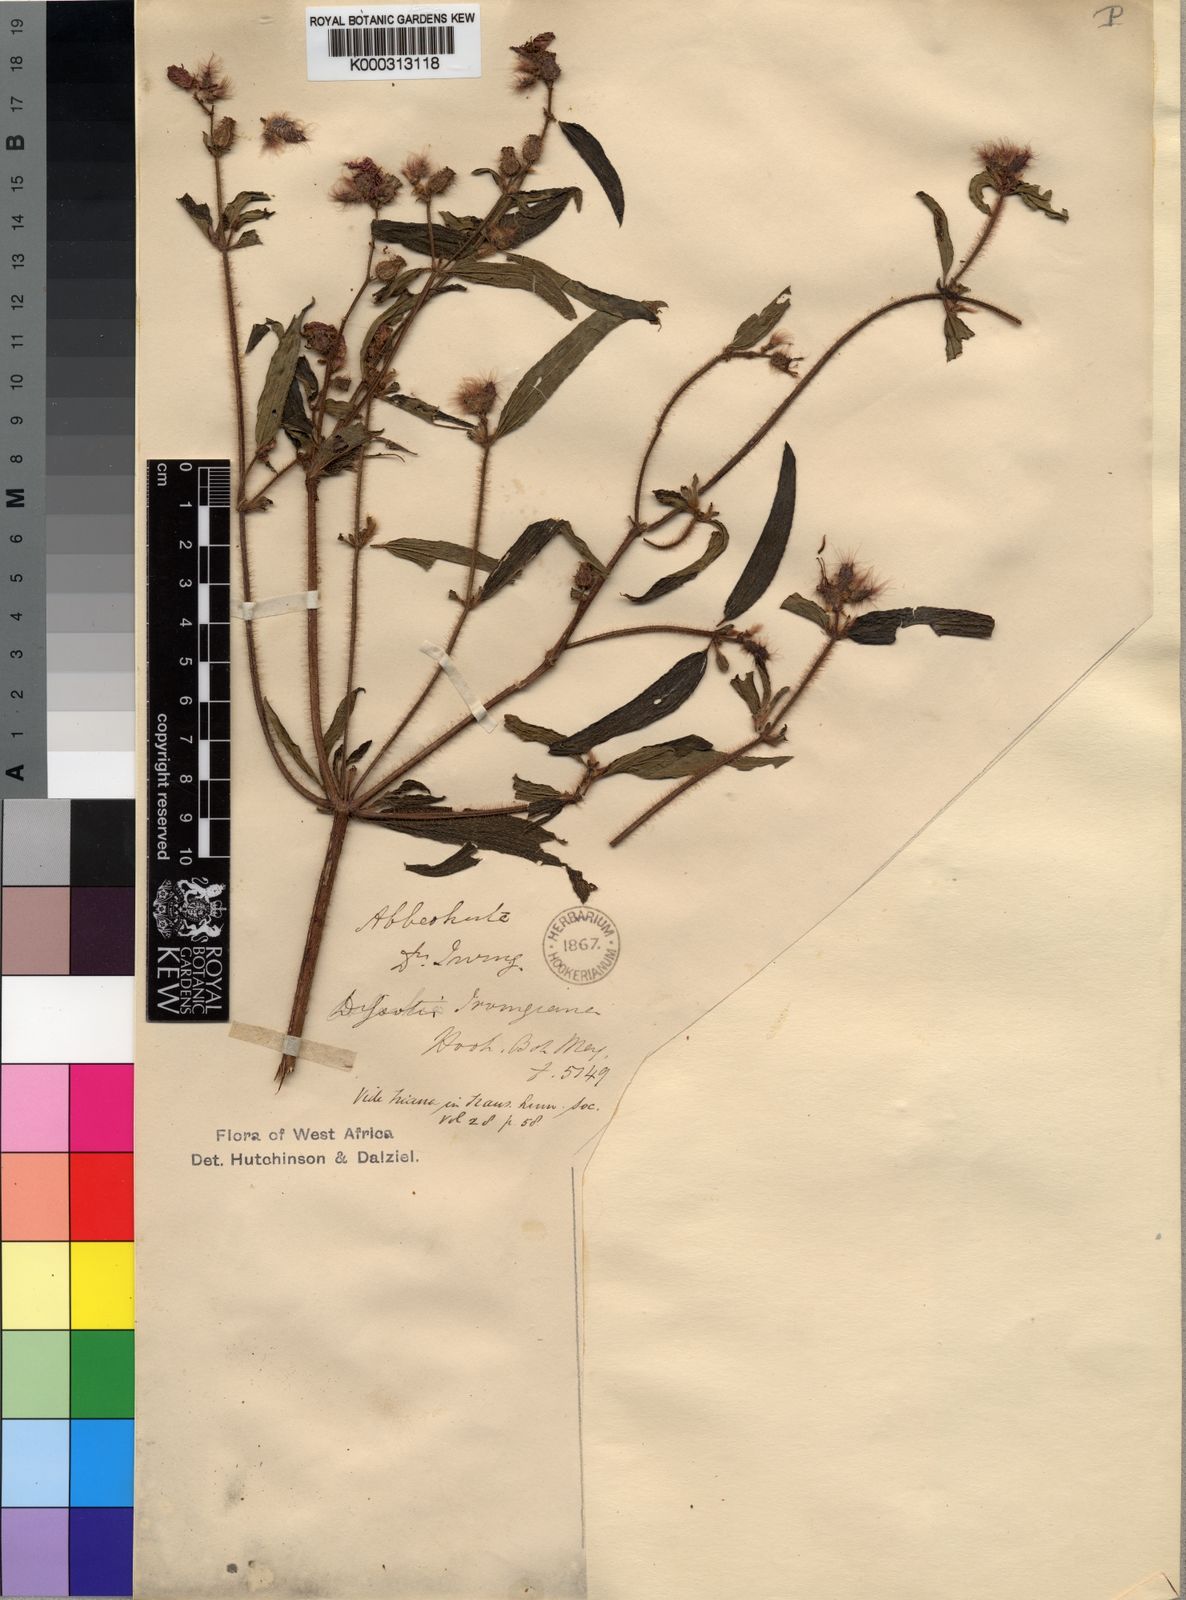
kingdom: Plantae
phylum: Tracheophyta
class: Magnoliopsida
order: Myrtales
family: Melastomataceae
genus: Antherotoma
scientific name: Antherotoma
